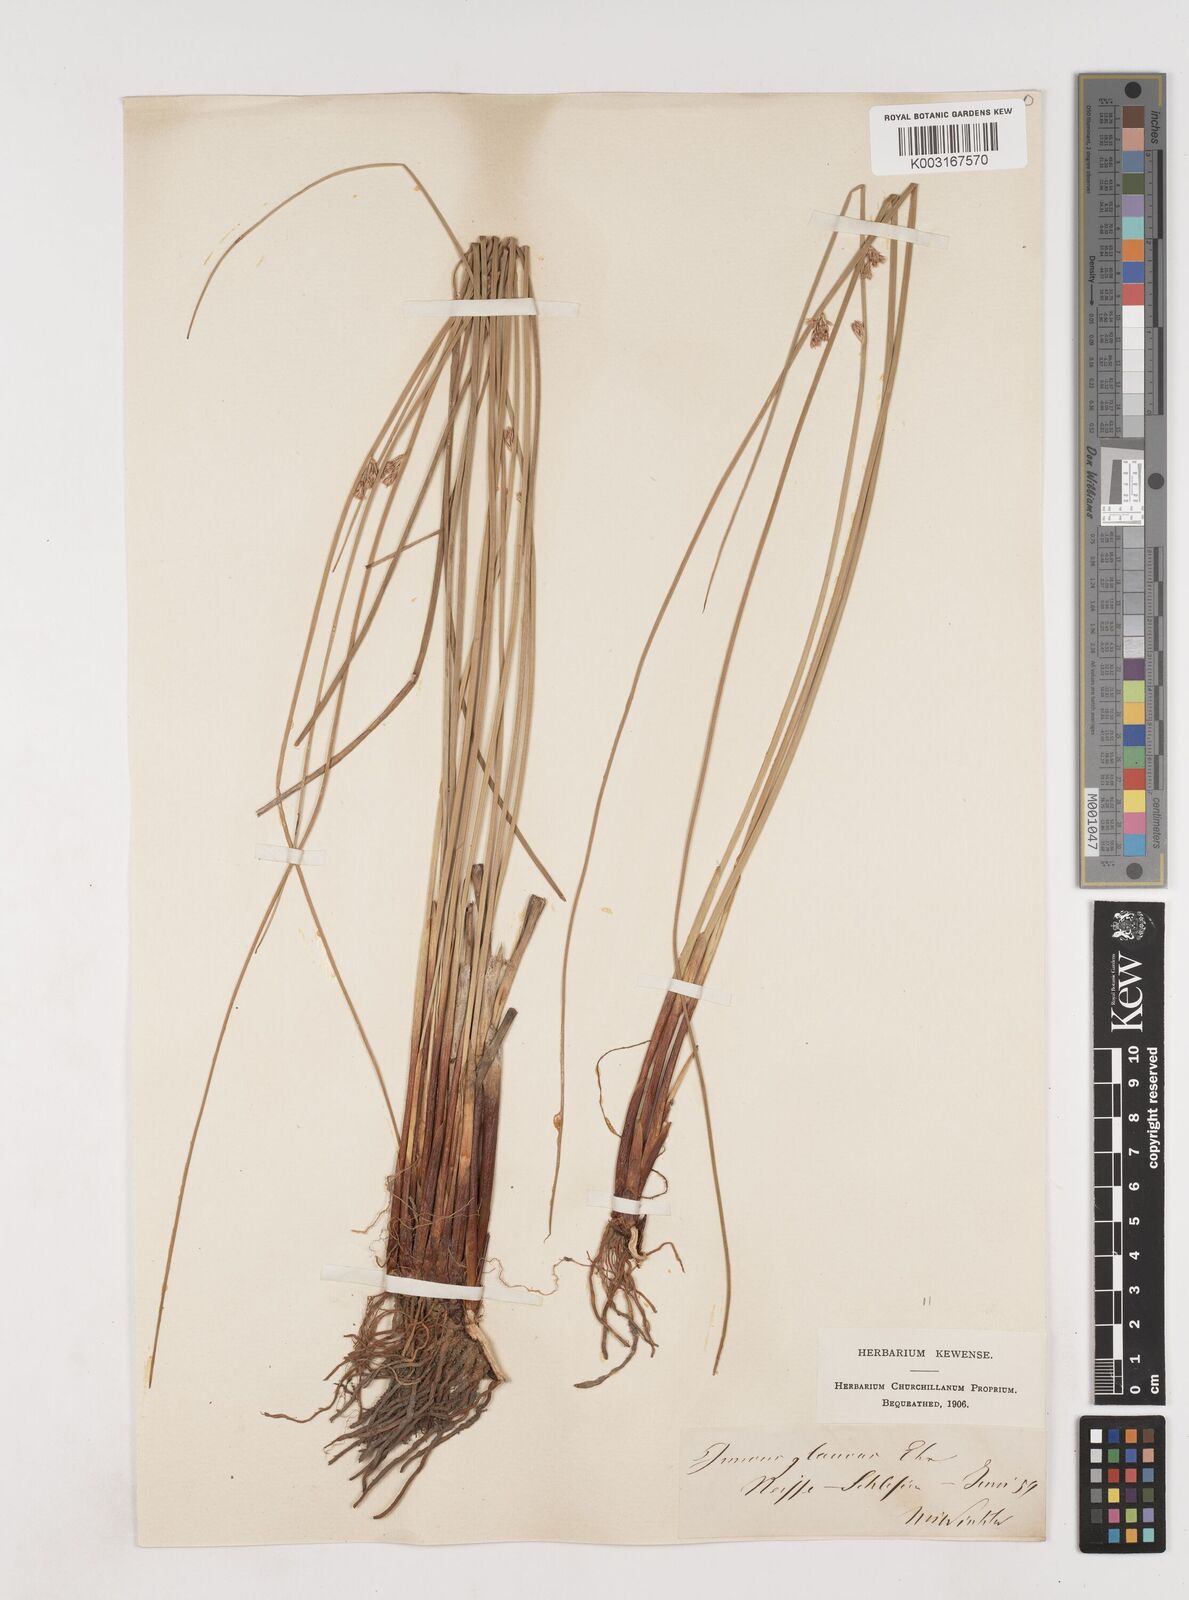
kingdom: Plantae
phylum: Tracheophyta
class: Liliopsida
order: Poales
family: Juncaceae
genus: Juncus
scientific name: Juncus inflexus
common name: Hard rush
